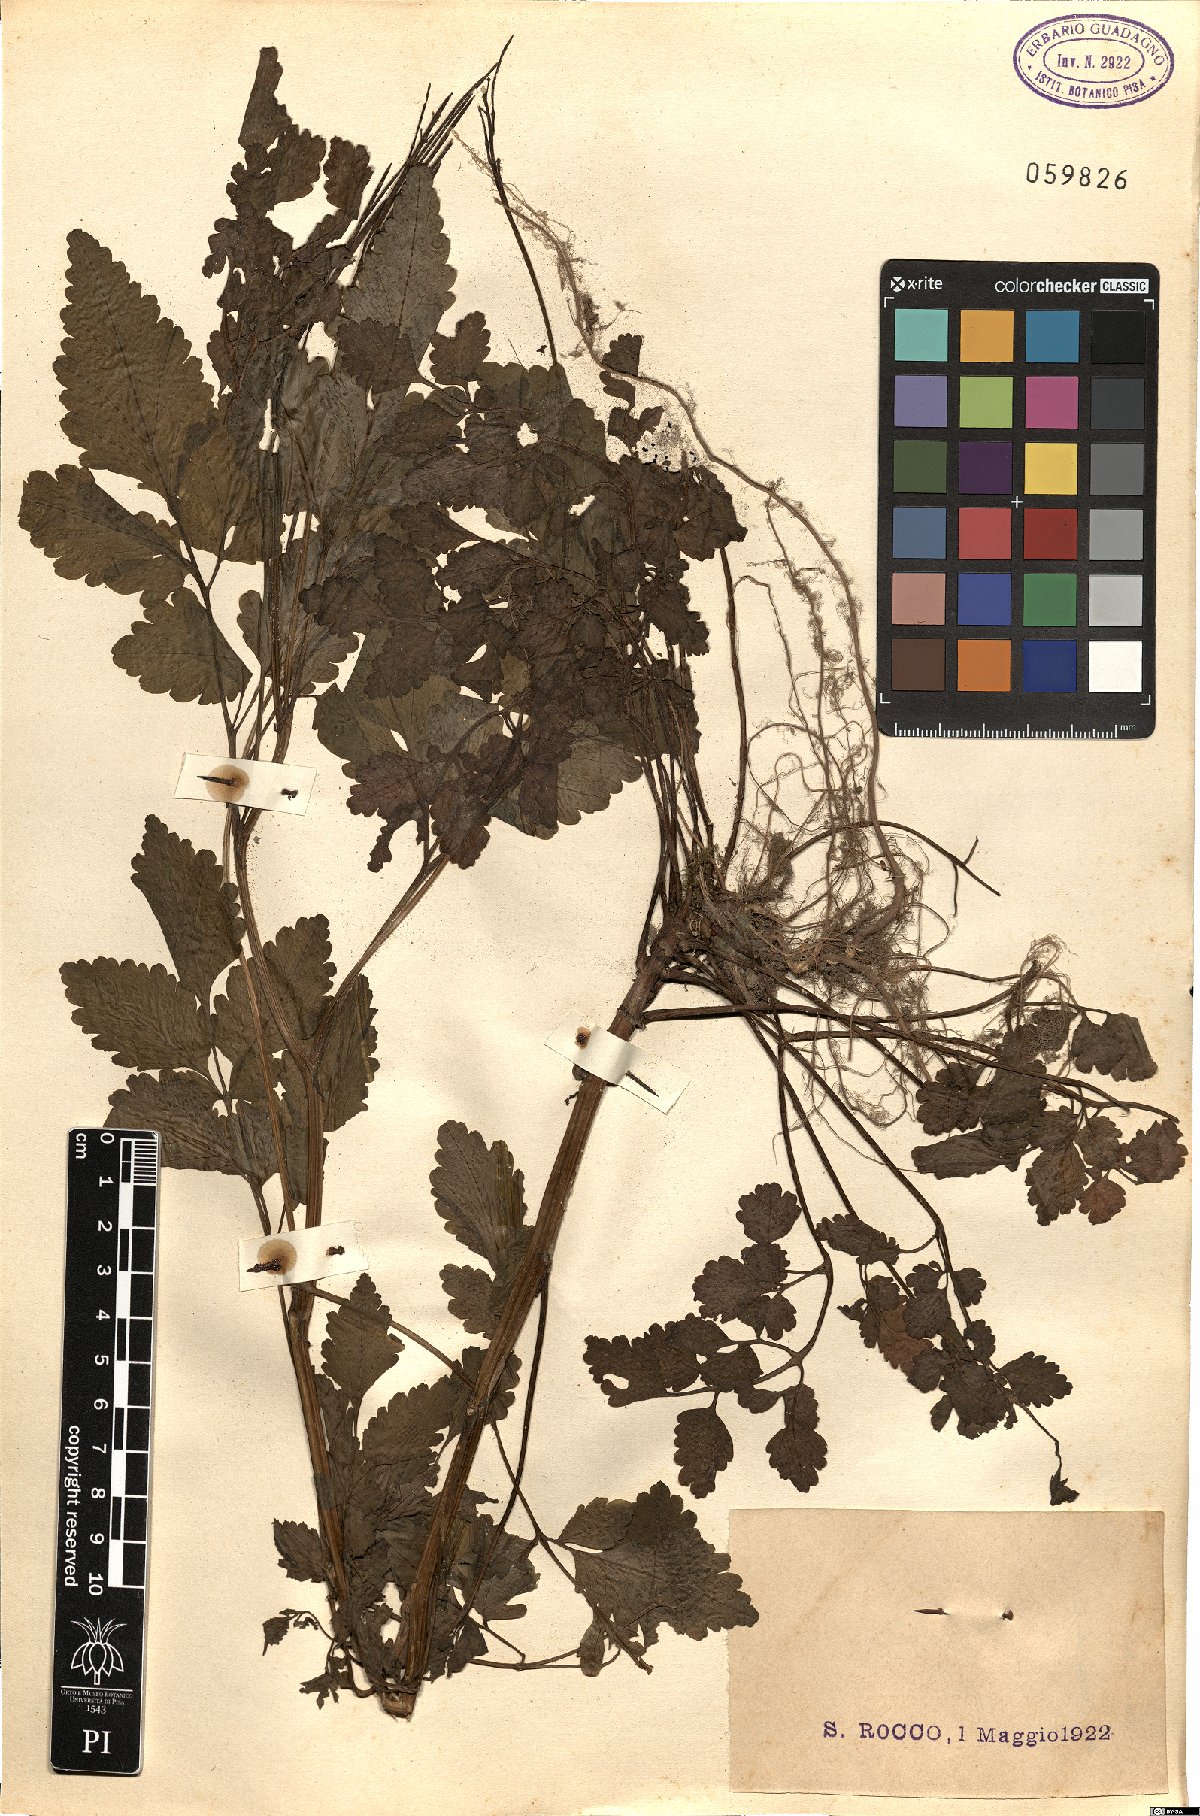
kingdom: Plantae
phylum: Tracheophyta
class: Magnoliopsida
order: Brassicales
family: Brassicaceae
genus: Cardamine
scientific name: Cardamine chelidonia
